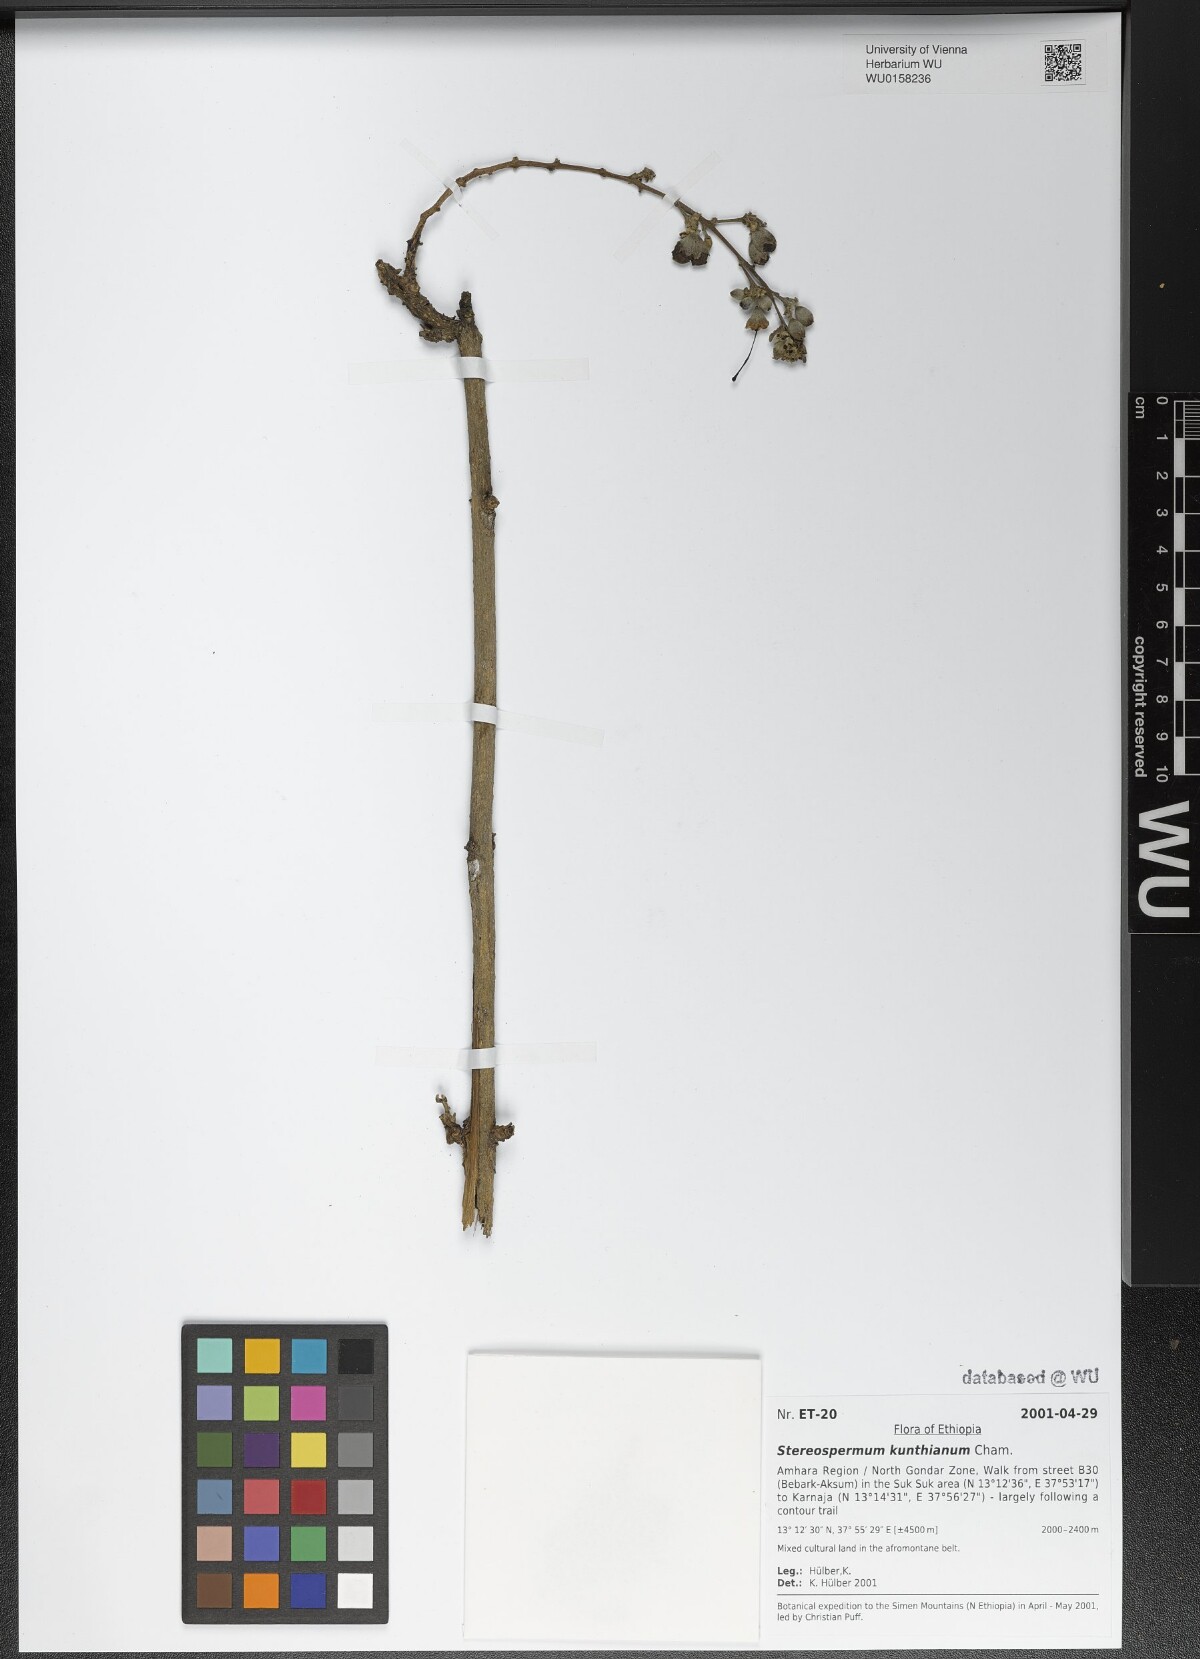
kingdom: Plantae
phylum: Tracheophyta
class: Magnoliopsida
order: Lamiales
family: Bignoniaceae
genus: Stereospermum
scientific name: Stereospermum kunthianum
